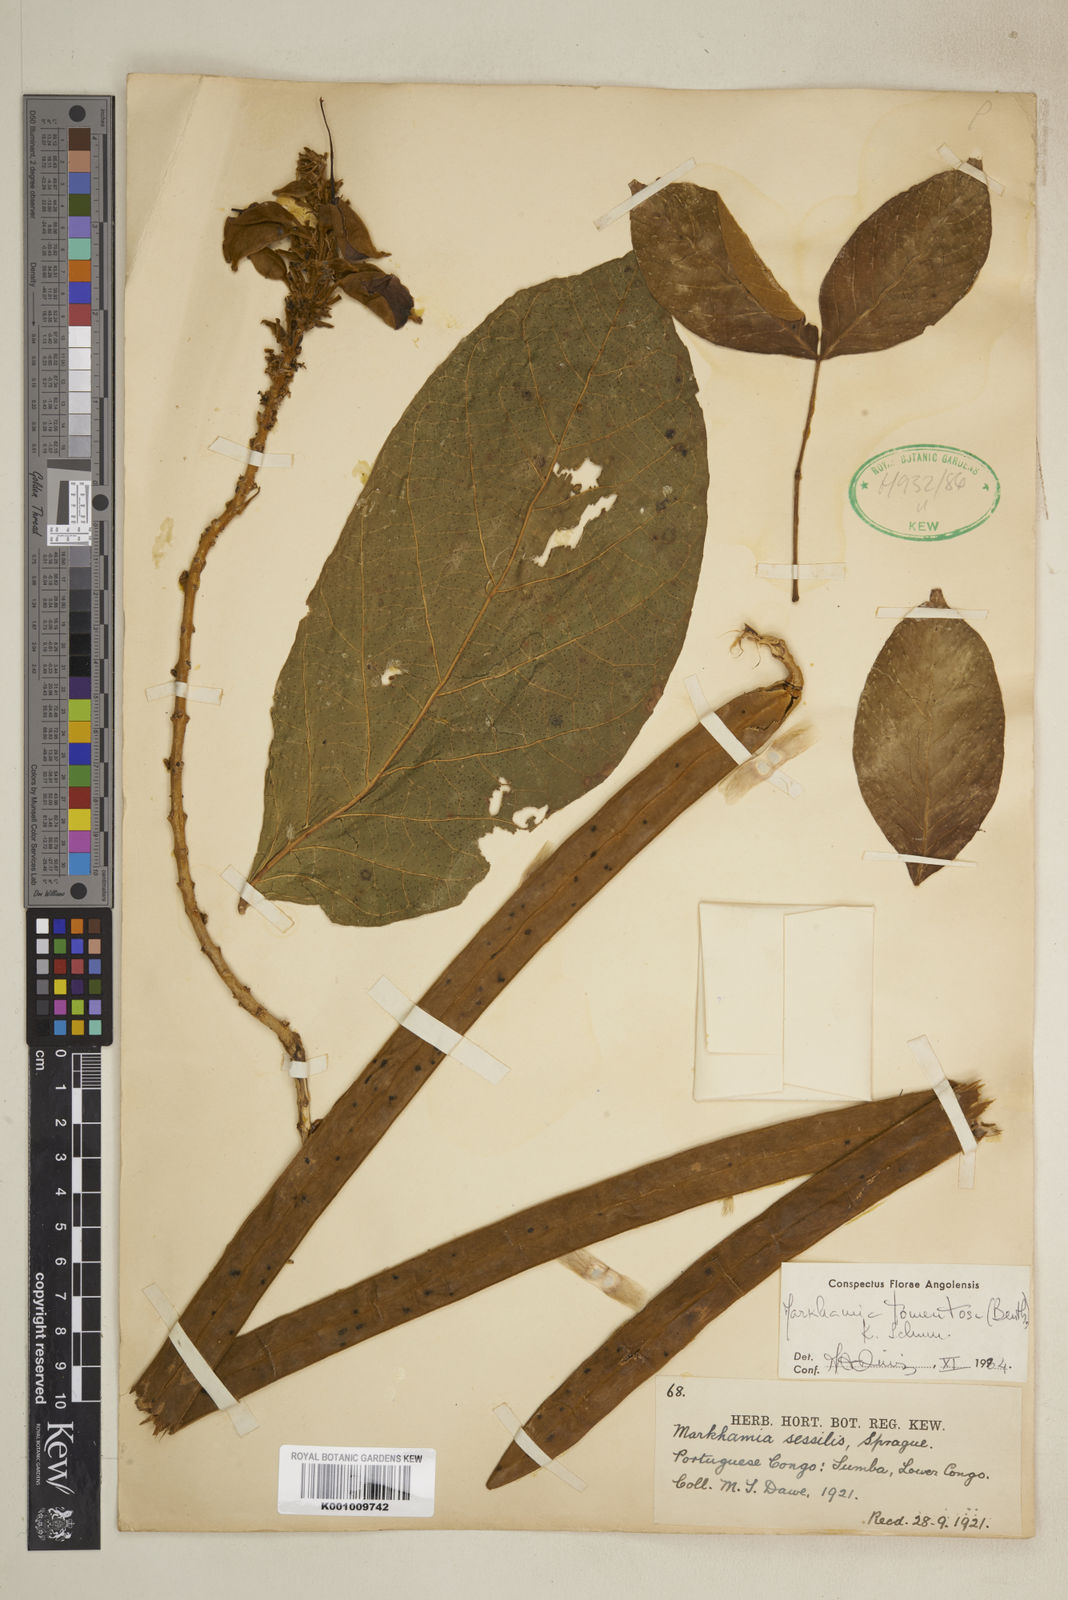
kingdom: Plantae
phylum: Tracheophyta
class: Magnoliopsida
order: Lamiales
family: Bignoniaceae
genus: Markhamia
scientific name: Markhamia tomentosa
